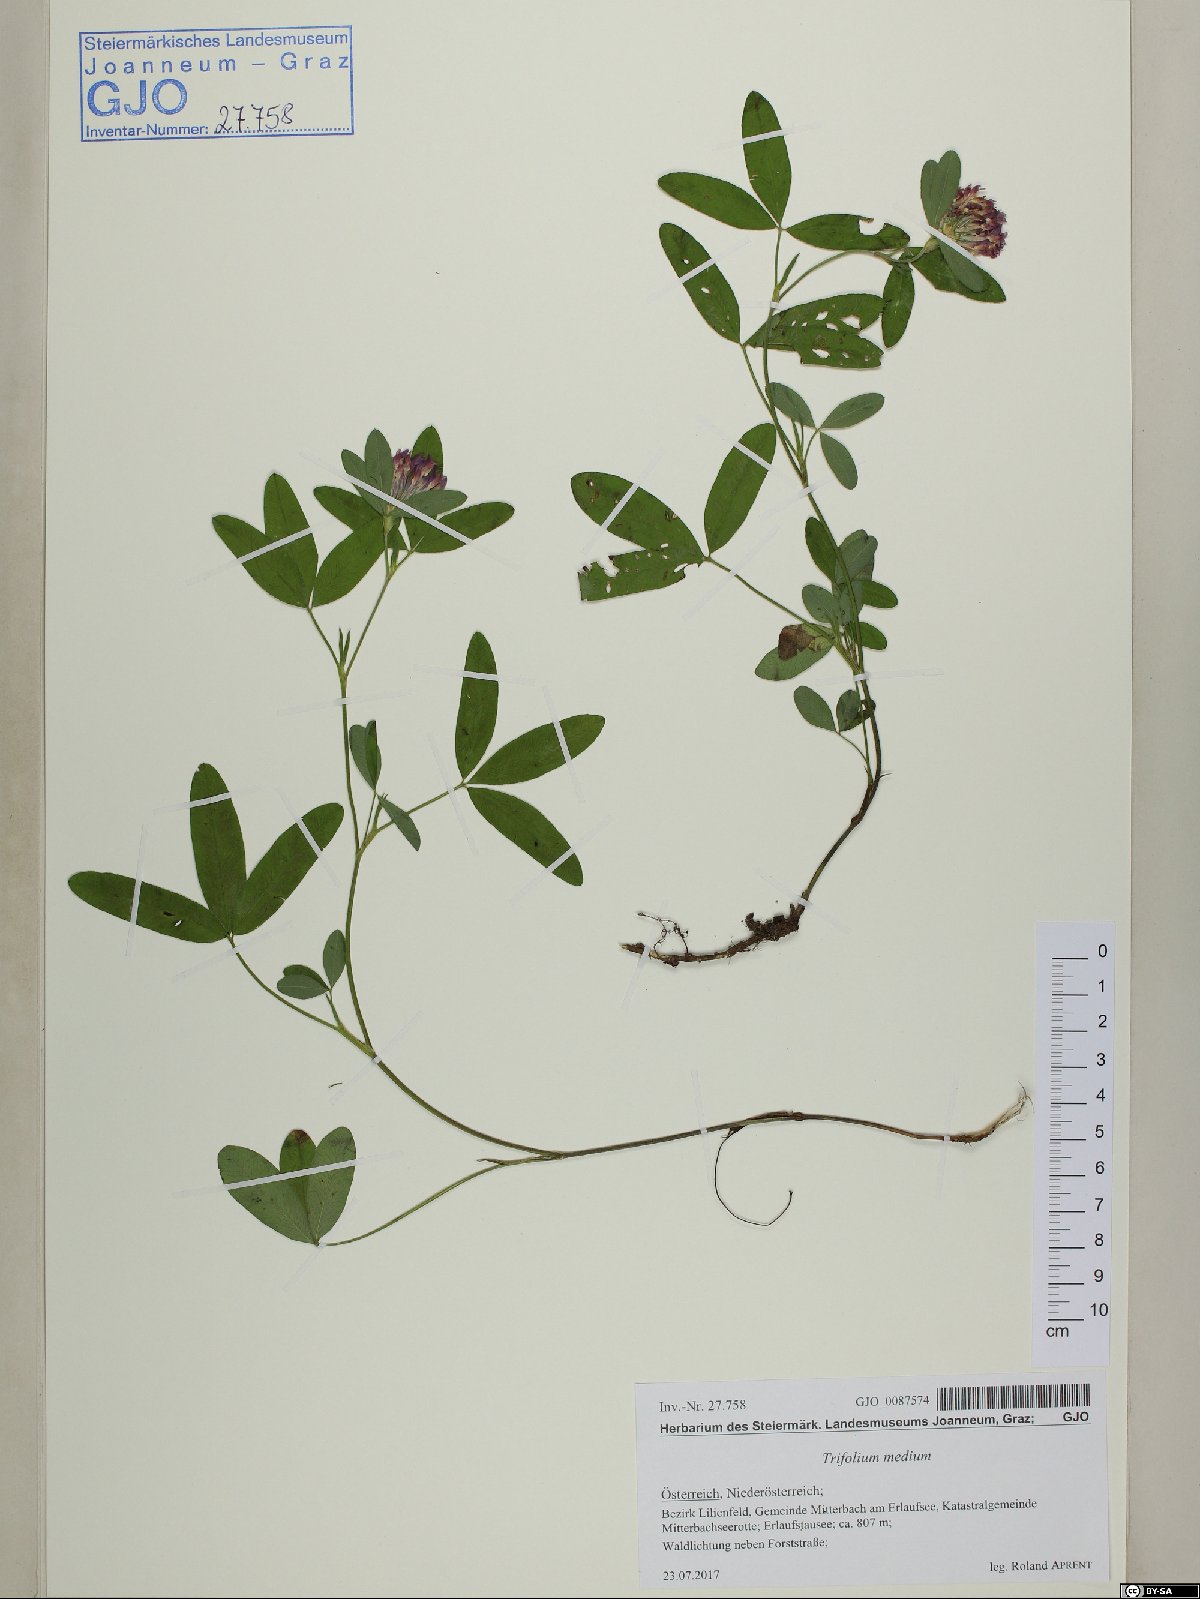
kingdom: Plantae
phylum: Tracheophyta
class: Magnoliopsida
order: Fabales
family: Fabaceae
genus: Trifolium
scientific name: Trifolium medium
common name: Zigzag clover
